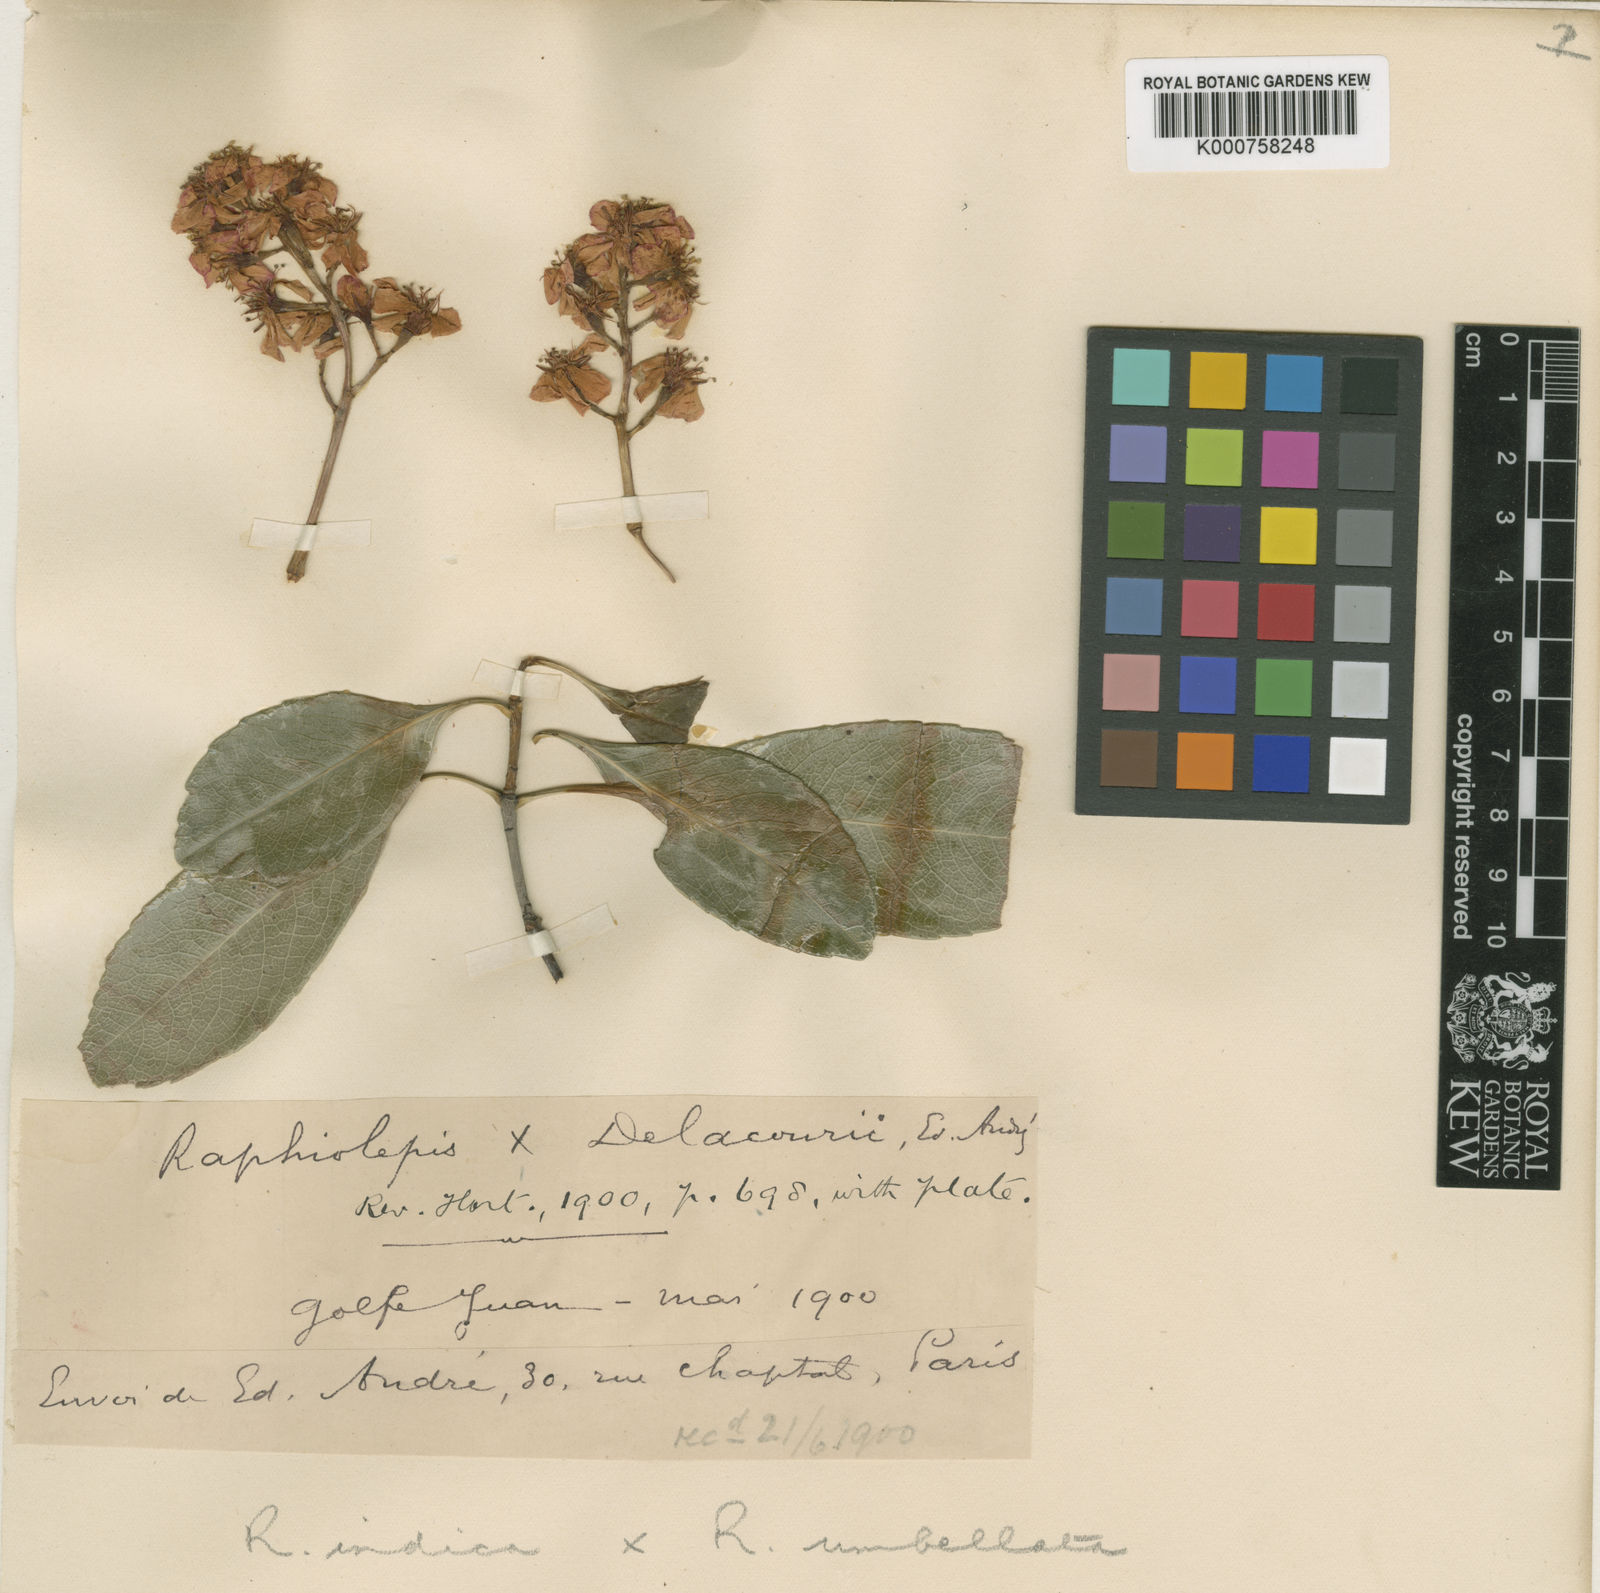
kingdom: Plantae
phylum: Tracheophyta
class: Magnoliopsida
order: Rosales
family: Rosaceae
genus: Rhaphiolepis
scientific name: Rhaphiolepis indica
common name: India-hawthorn
